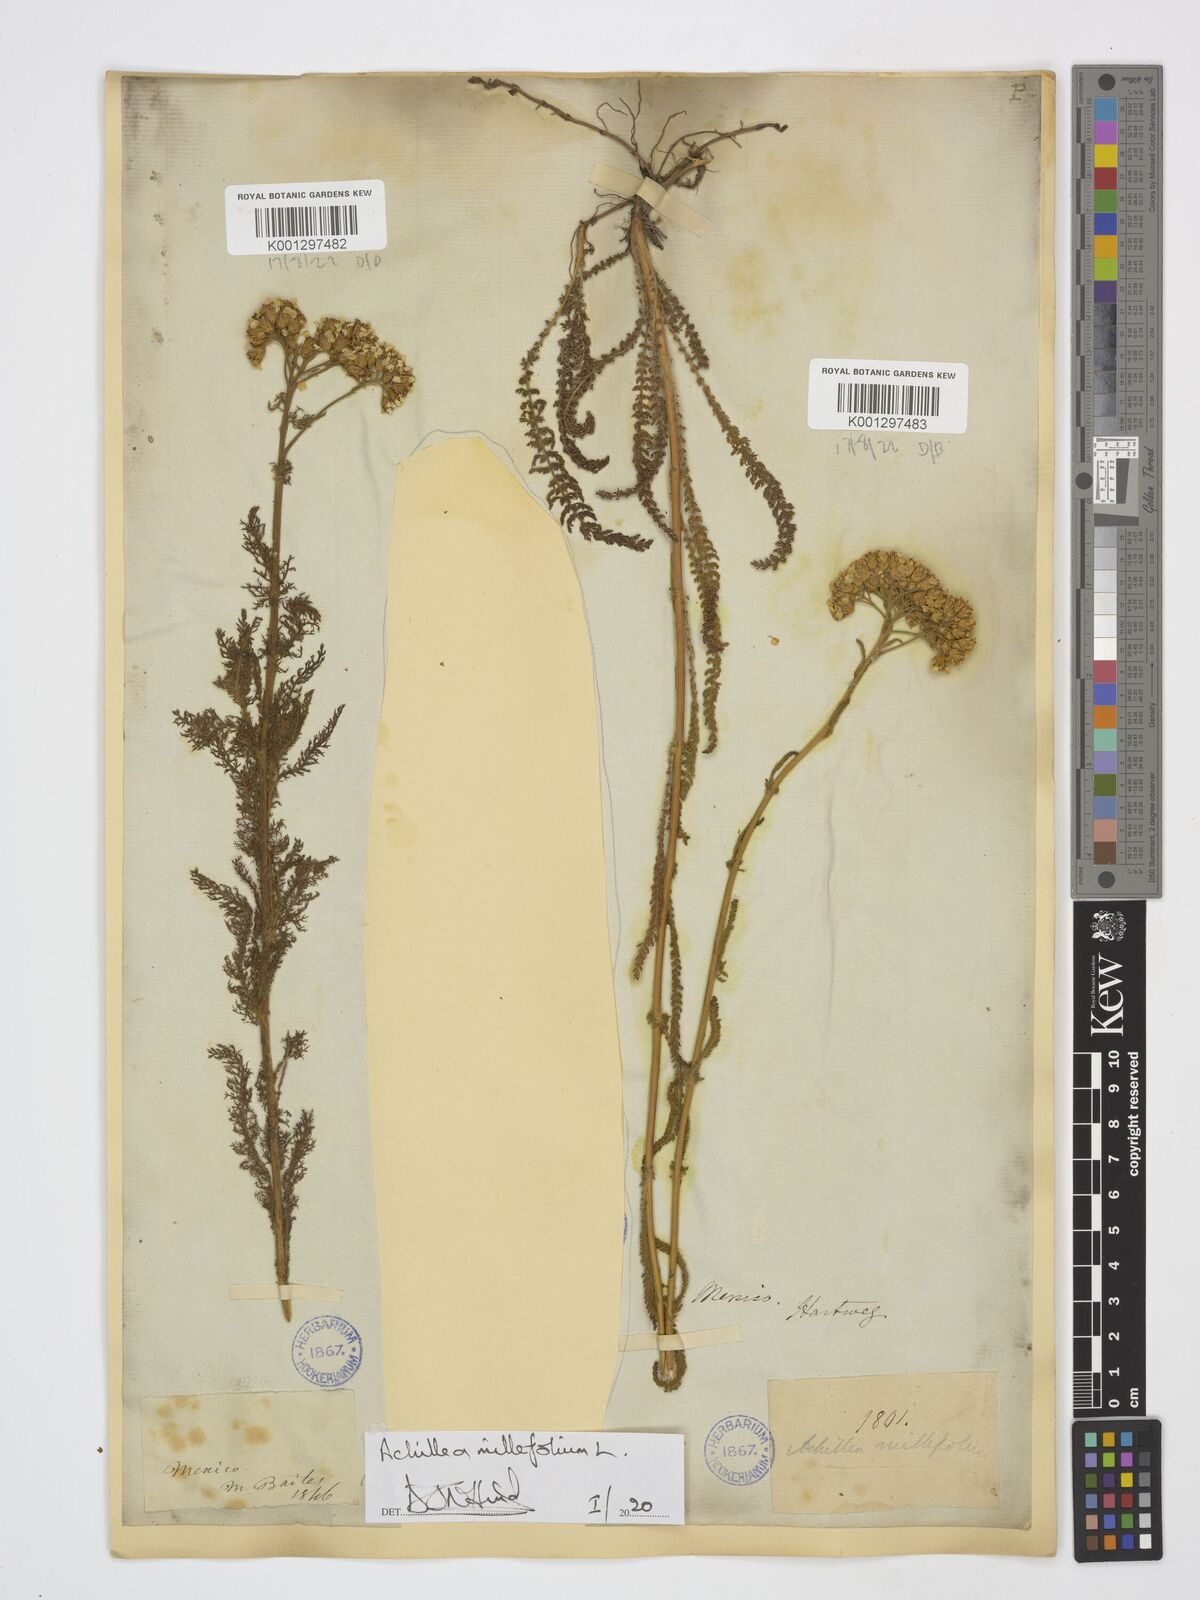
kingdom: Plantae
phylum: Tracheophyta
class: Magnoliopsida
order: Asterales
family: Asteraceae
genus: Achillea
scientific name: Achillea millefolium
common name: Yarrow
